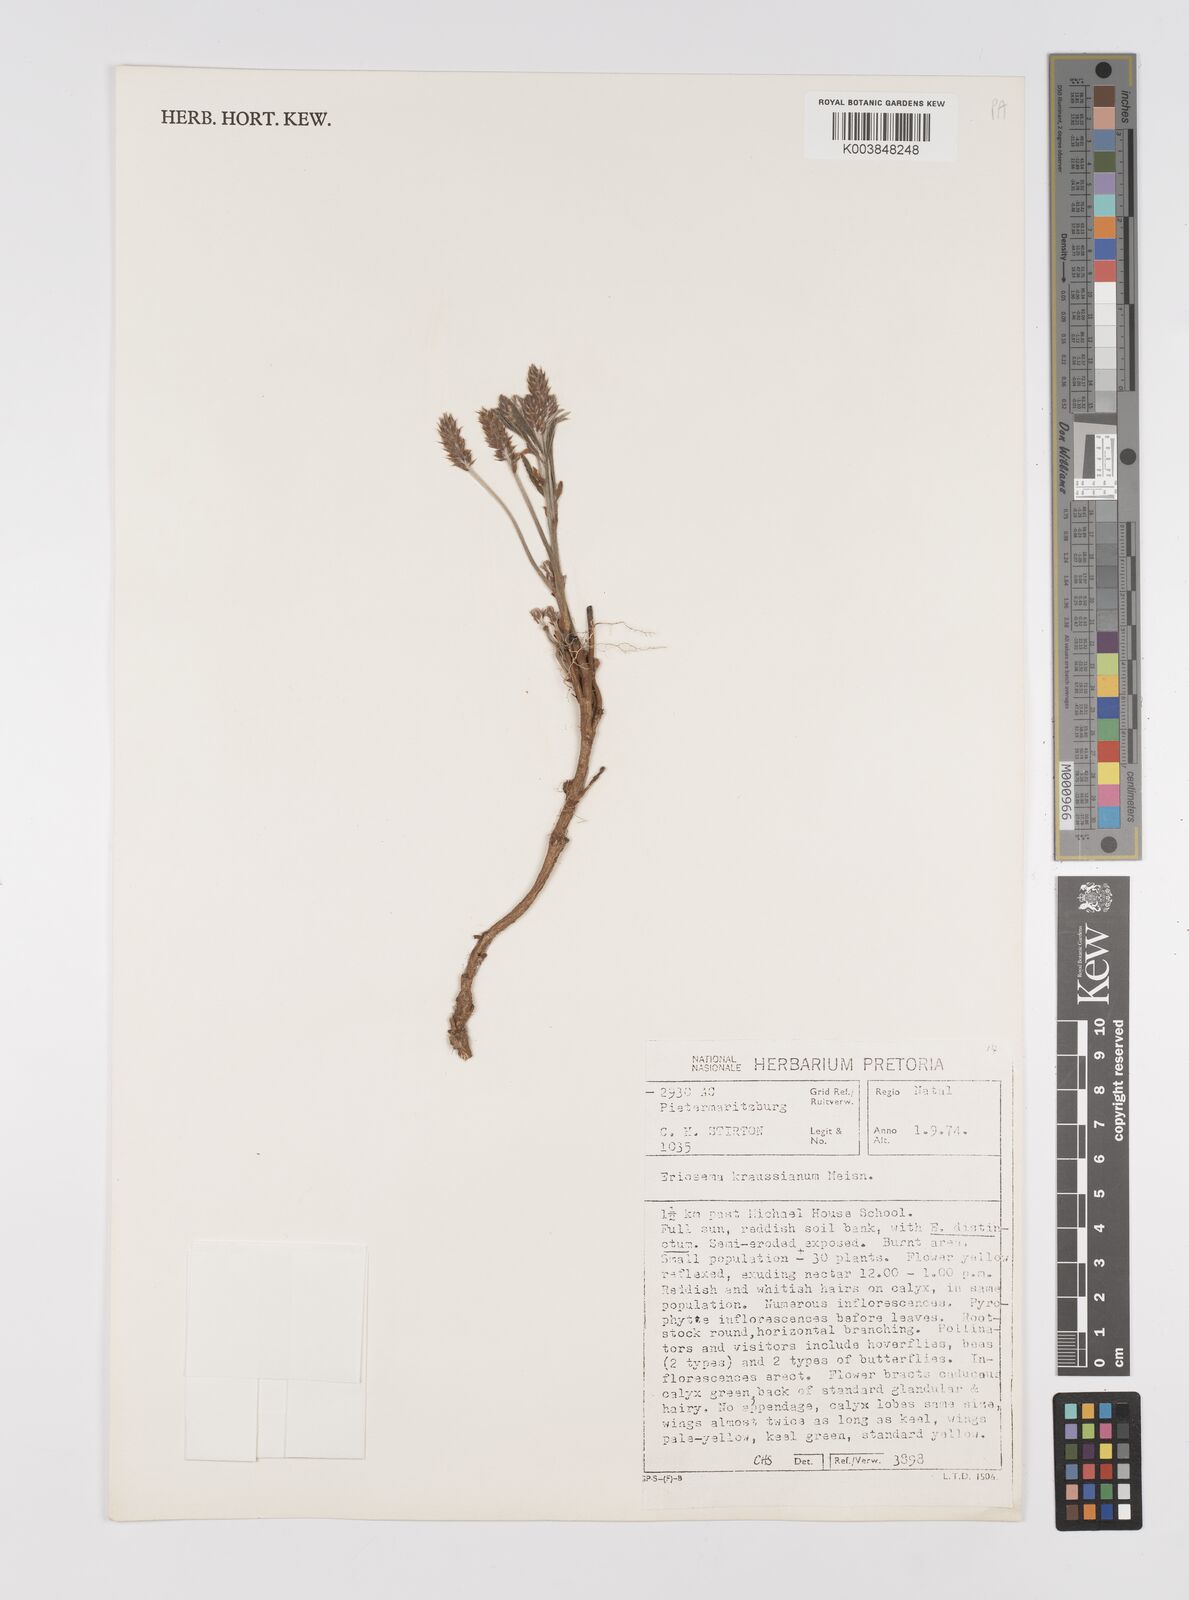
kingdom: Plantae
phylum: Tracheophyta
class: Magnoliopsida
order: Fabales
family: Fabaceae
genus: Eriosema
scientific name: Eriosema kraussianum
